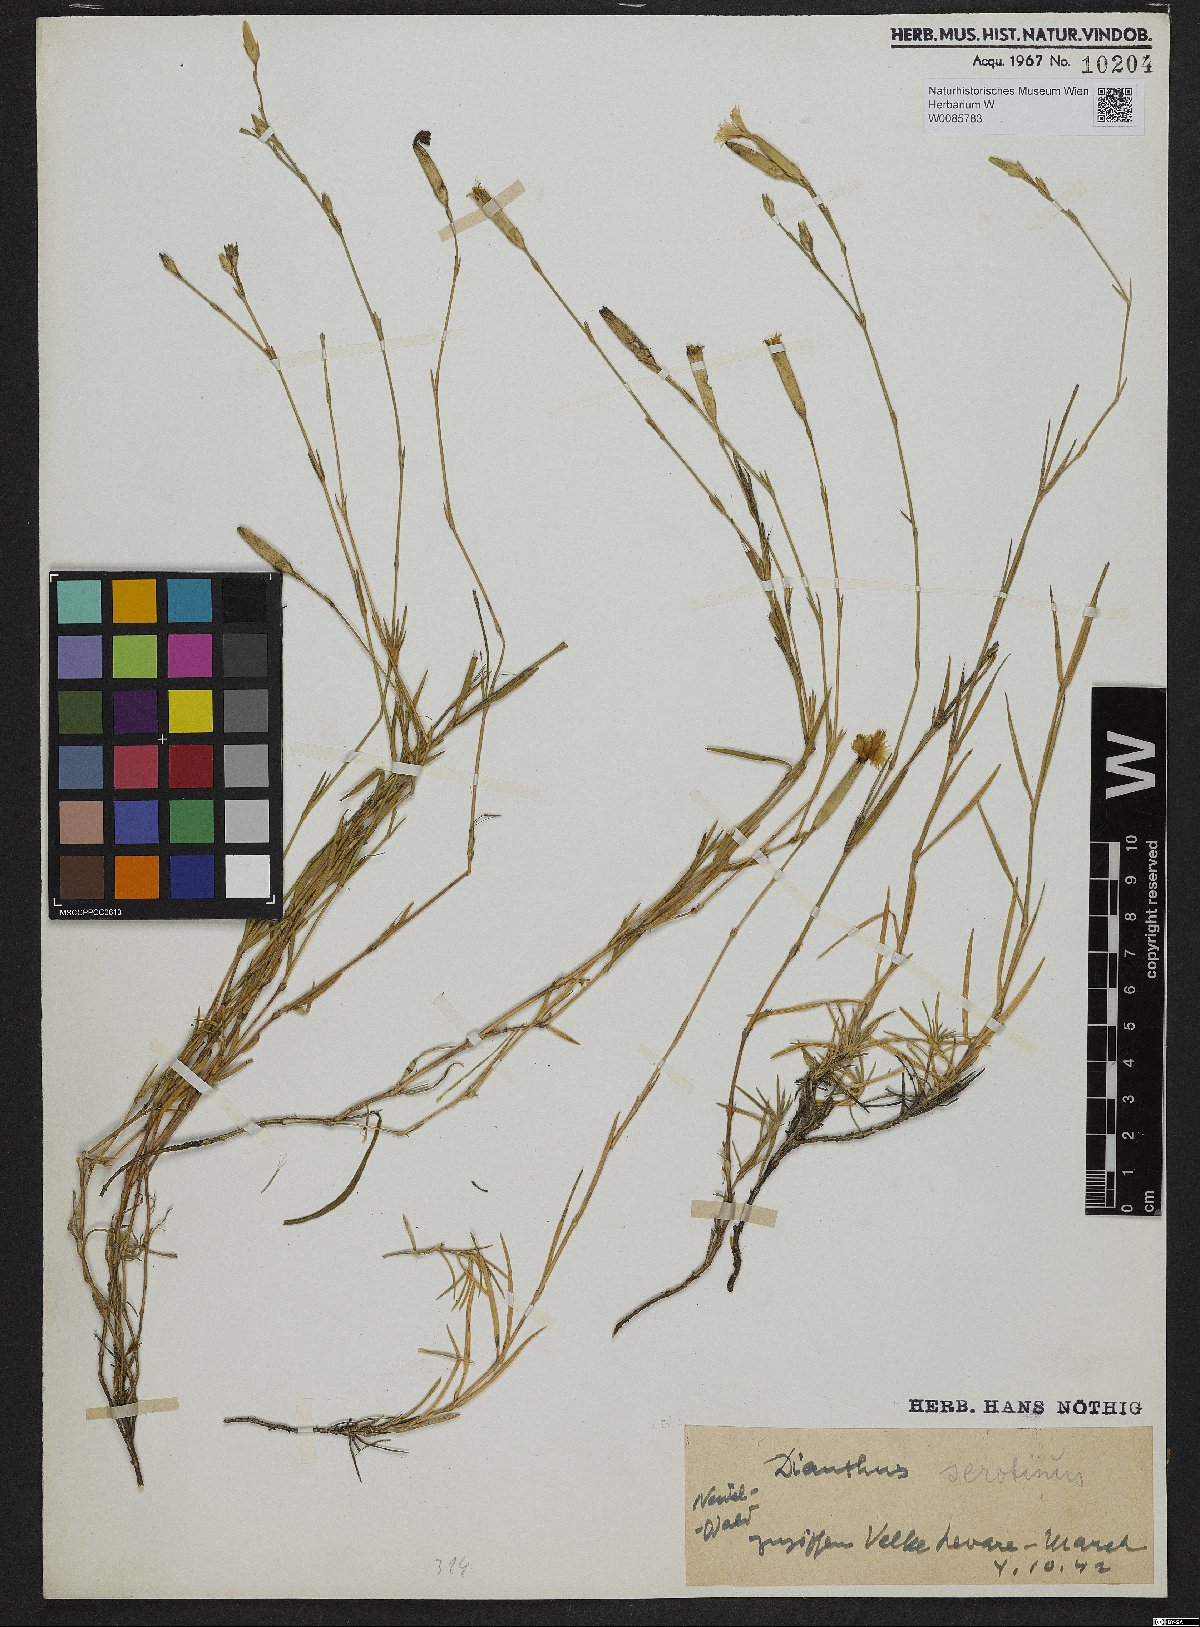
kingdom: Plantae
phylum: Tracheophyta
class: Magnoliopsida
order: Caryophyllales
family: Caryophyllaceae
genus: Dianthus
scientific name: Dianthus serotinus
